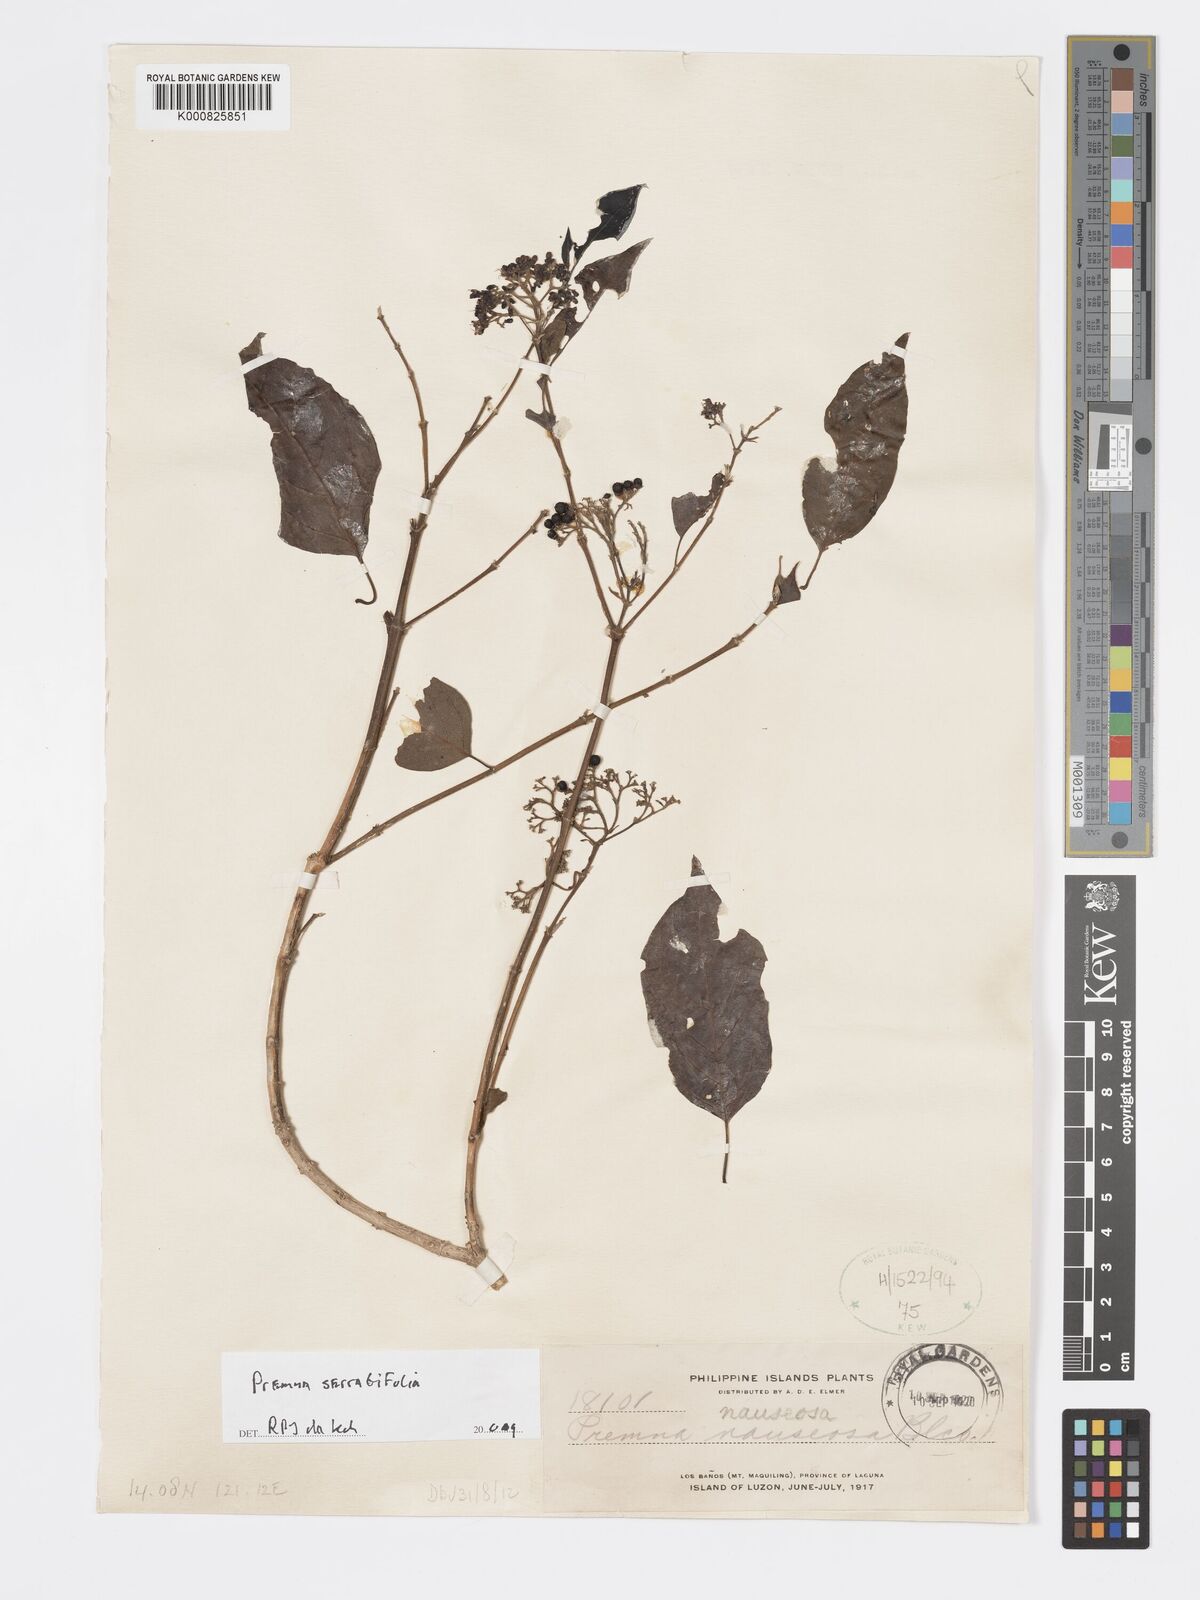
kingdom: Plantae
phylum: Tracheophyta
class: Magnoliopsida
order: Lamiales
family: Lamiaceae
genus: Premna
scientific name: Premna serratifolia
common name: Bastard guelder
